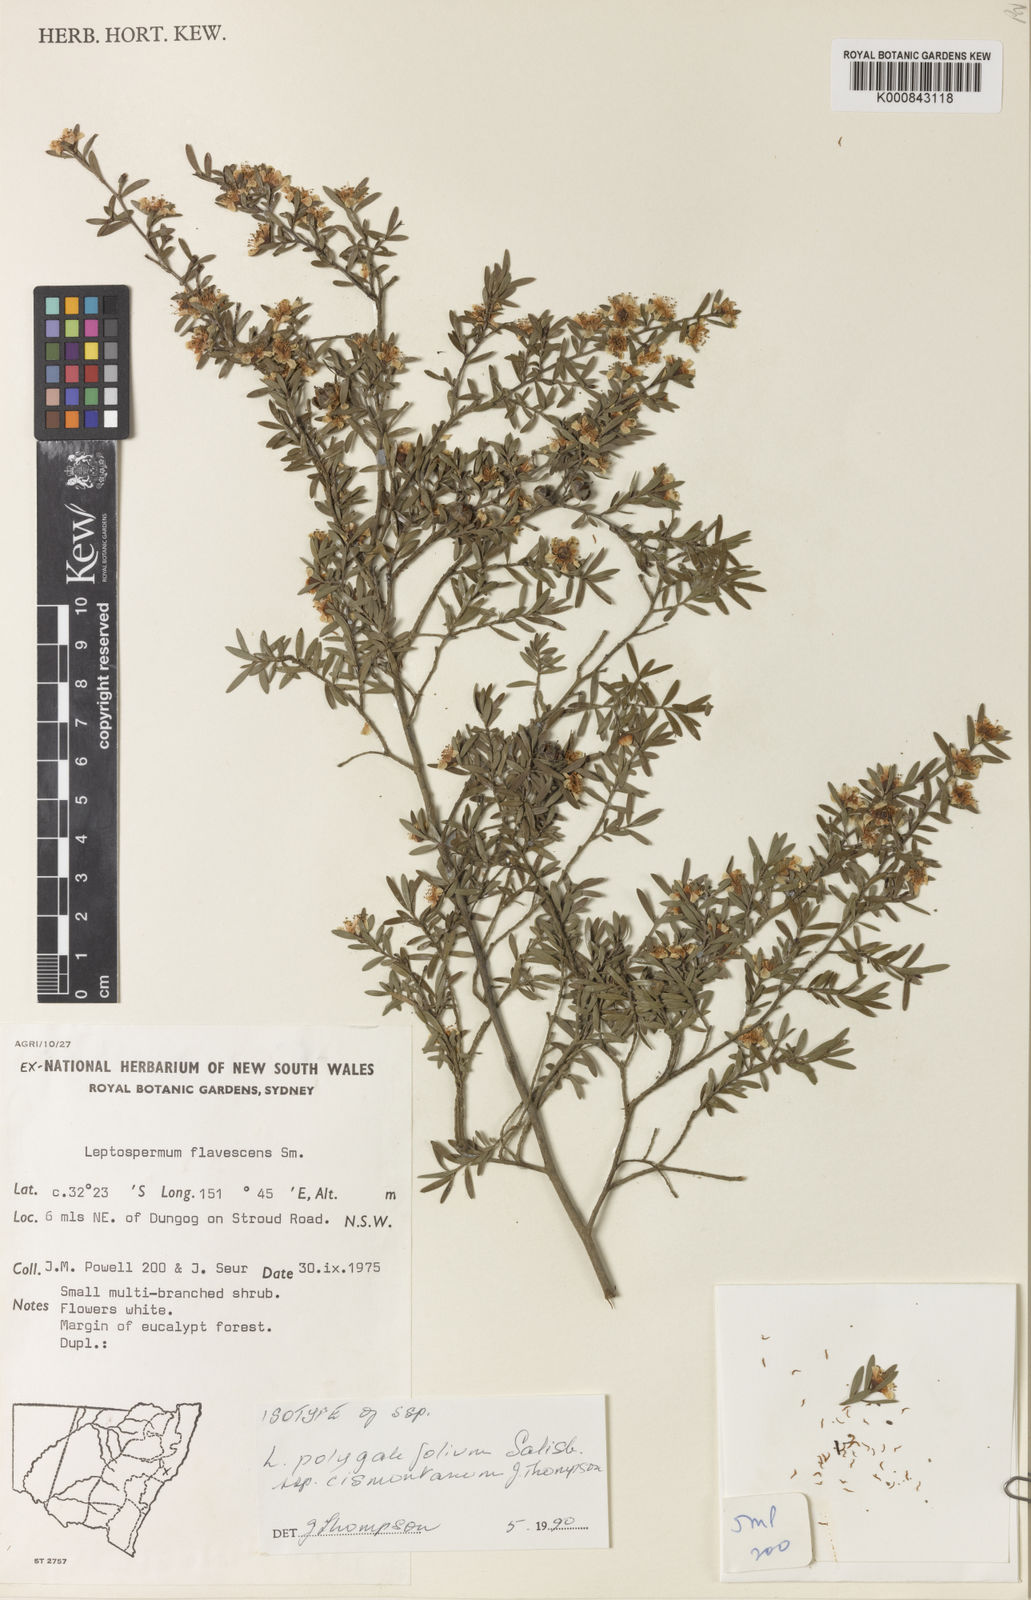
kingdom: Plantae
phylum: Tracheophyta
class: Magnoliopsida
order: Myrtales
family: Myrtaceae
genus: Leptospermum
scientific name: Leptospermum polygalifolium
